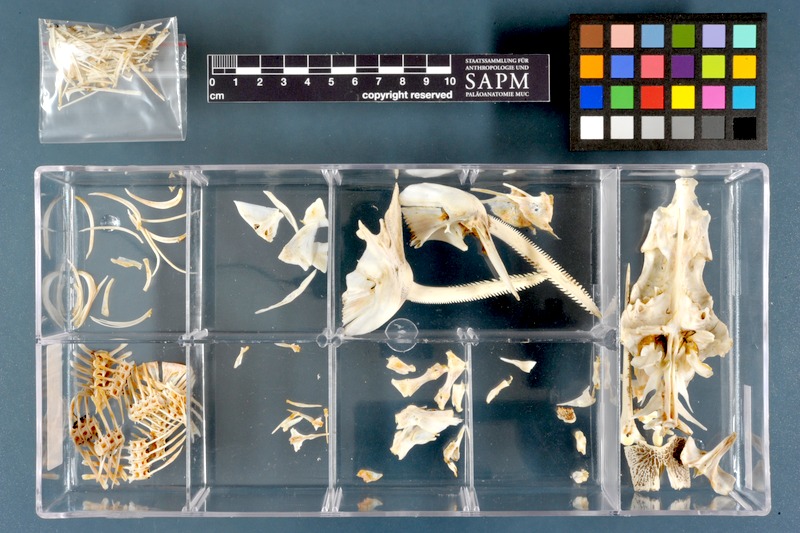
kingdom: Animalia
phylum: Chordata
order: Siluriformes
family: Mochokidae
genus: Synodontis
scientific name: Synodontis serratus
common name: Shield-head catfish
